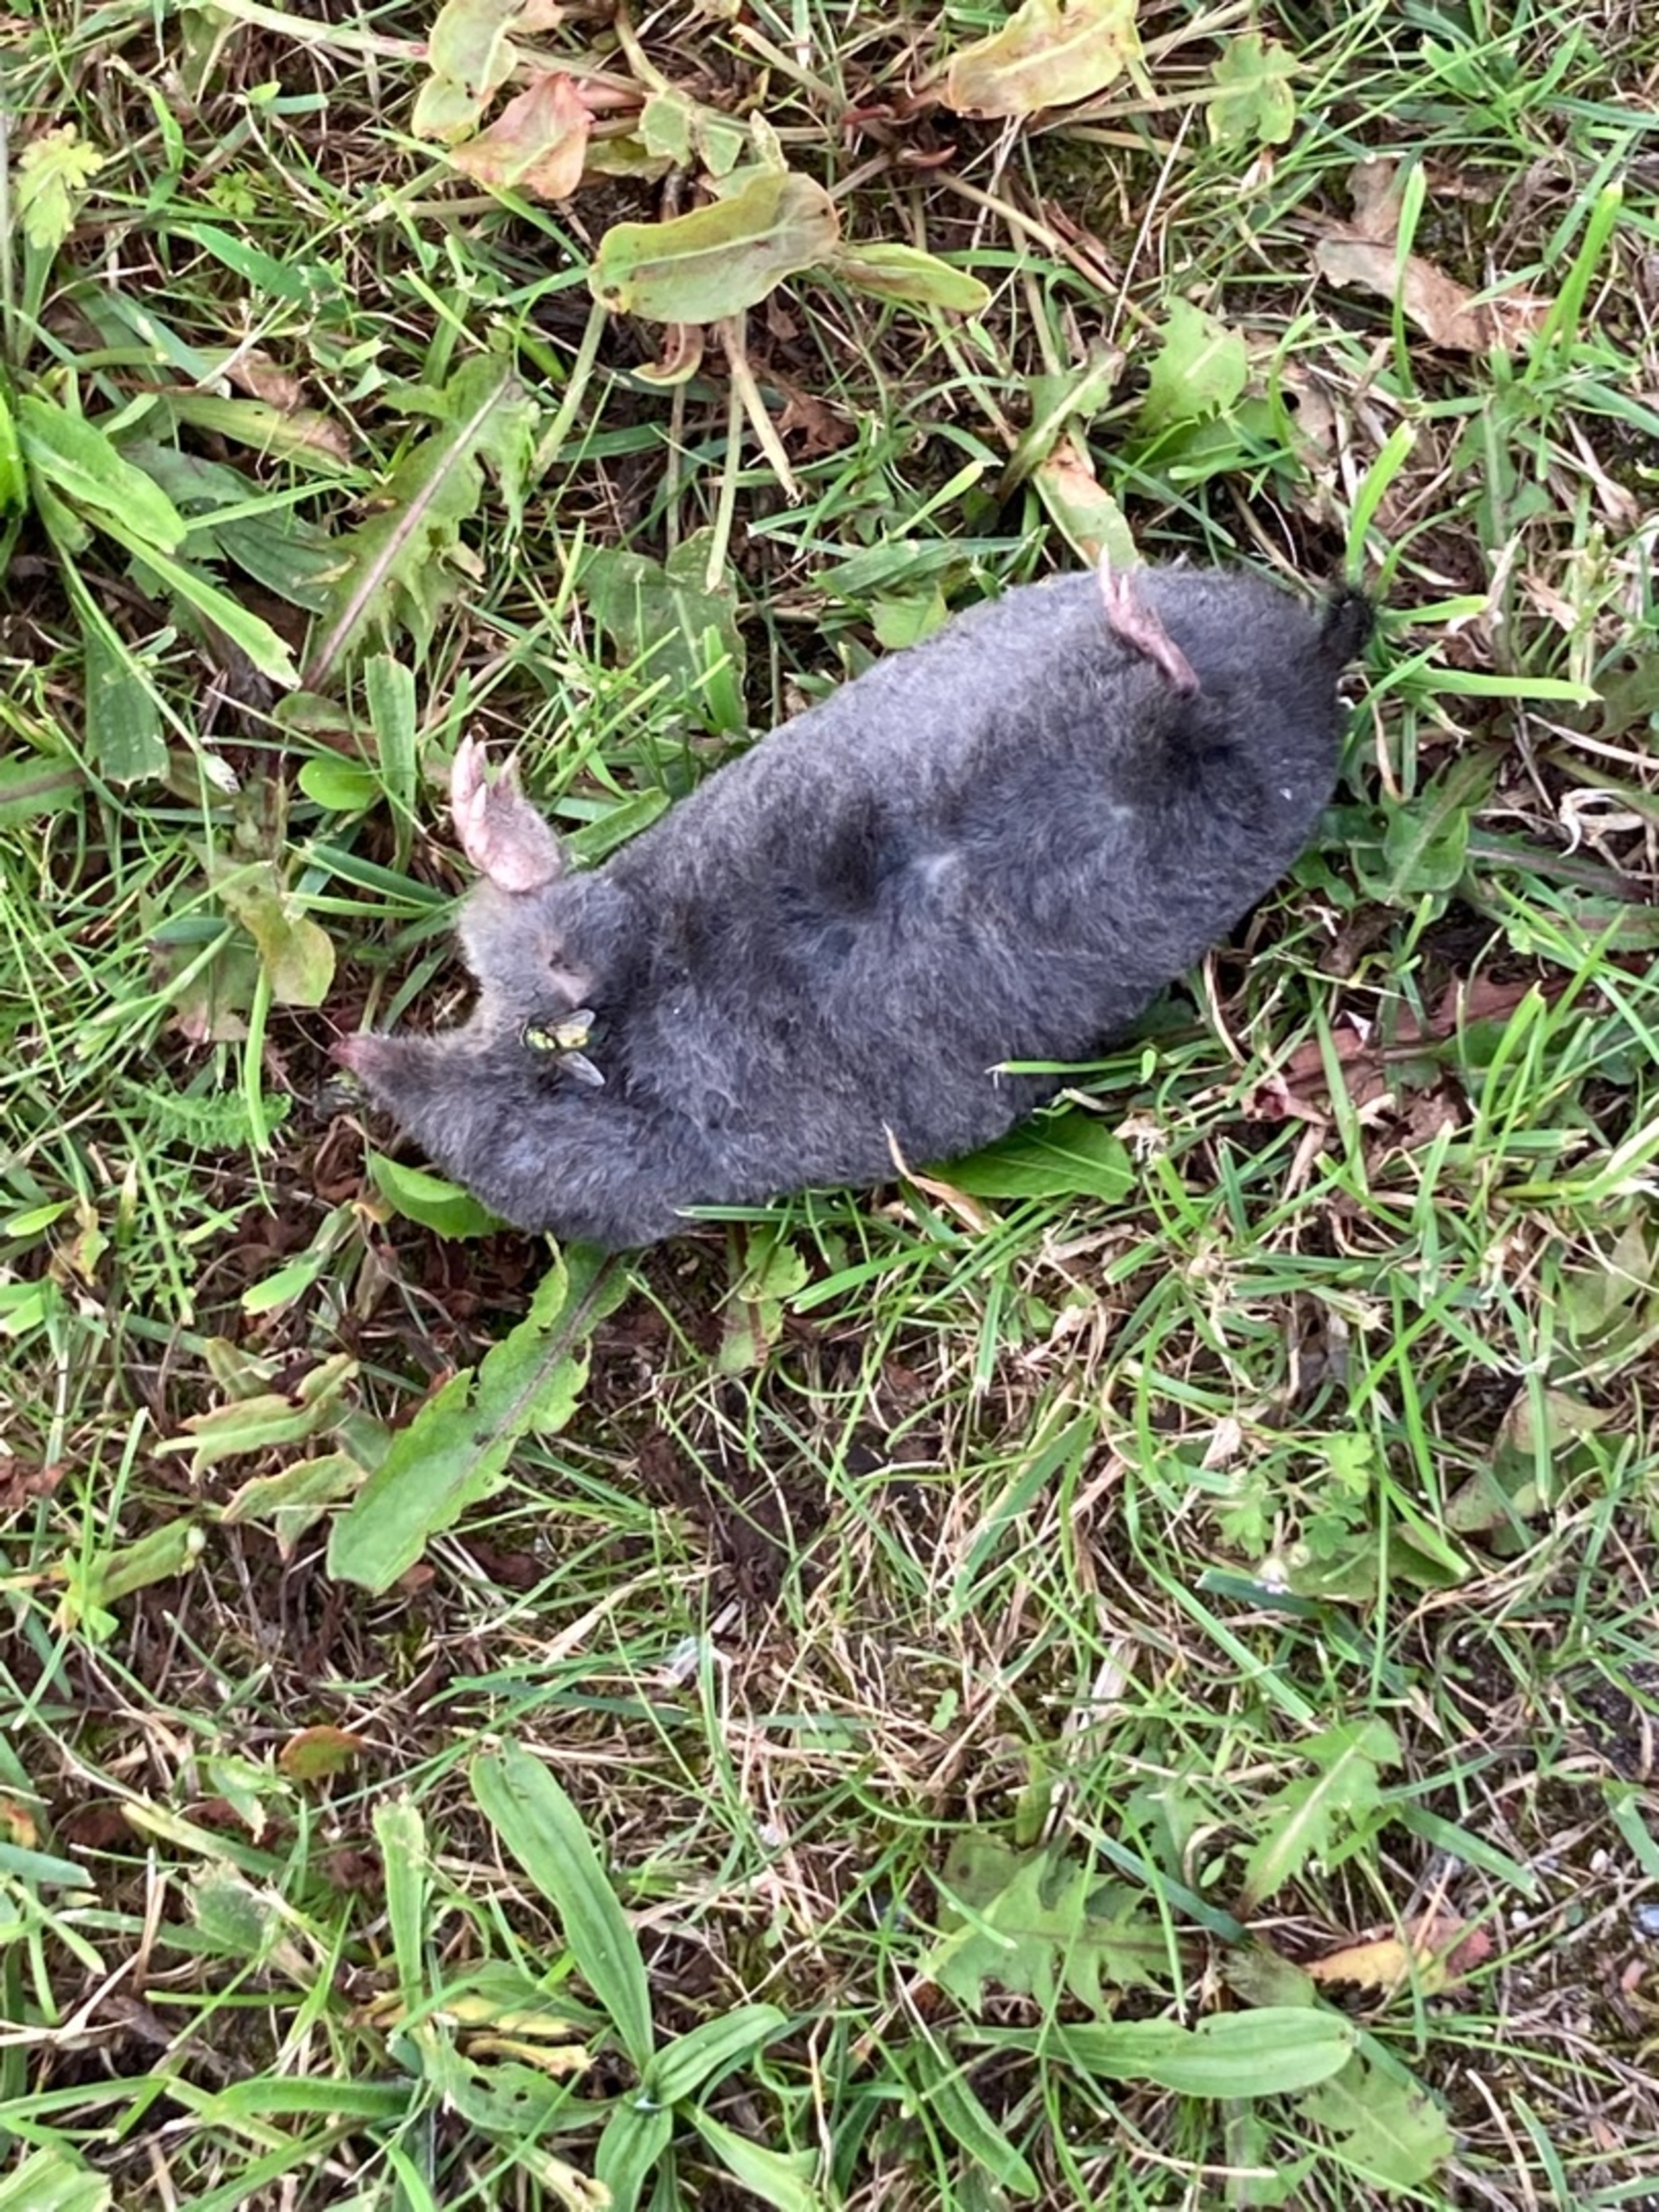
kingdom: Animalia
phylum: Chordata
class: Mammalia
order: Soricomorpha
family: Talpidae
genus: Talpa
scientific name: Talpa europaea
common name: Muldvarp
